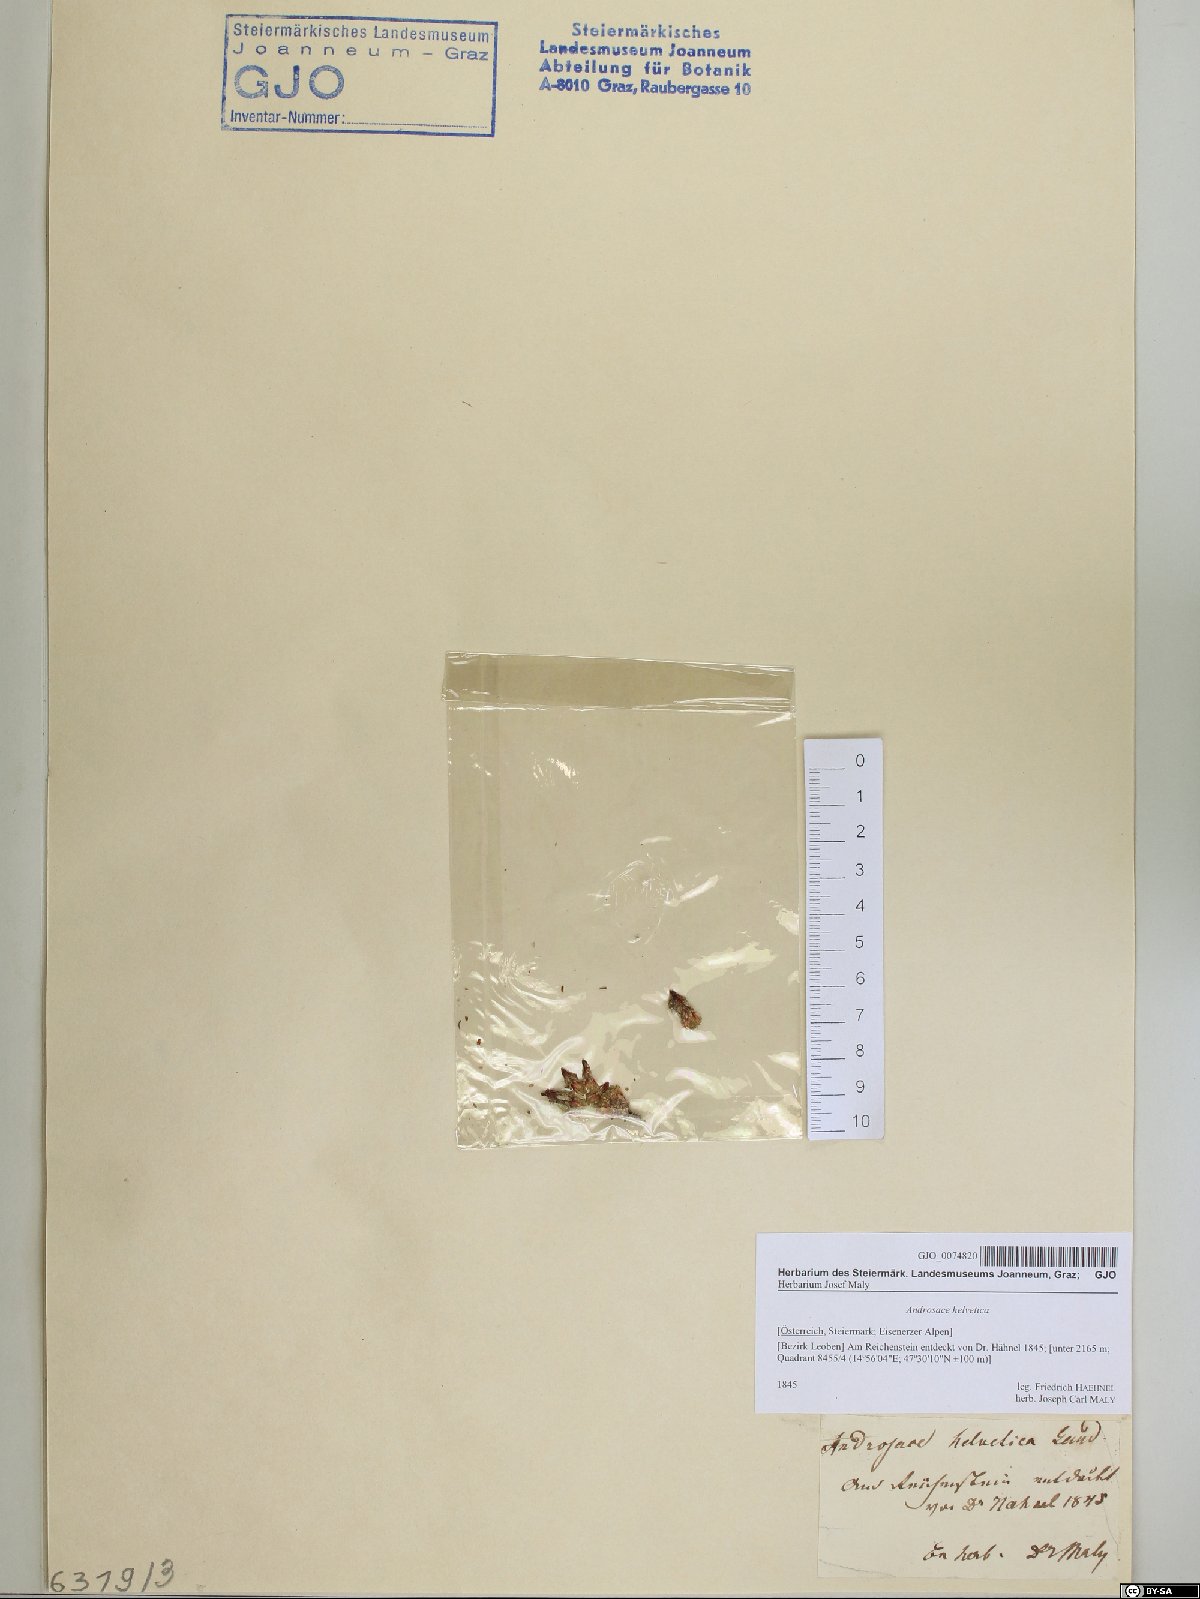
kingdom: Plantae
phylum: Tracheophyta
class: Magnoliopsida
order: Ericales
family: Primulaceae
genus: Androsace
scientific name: Androsace helvetica
